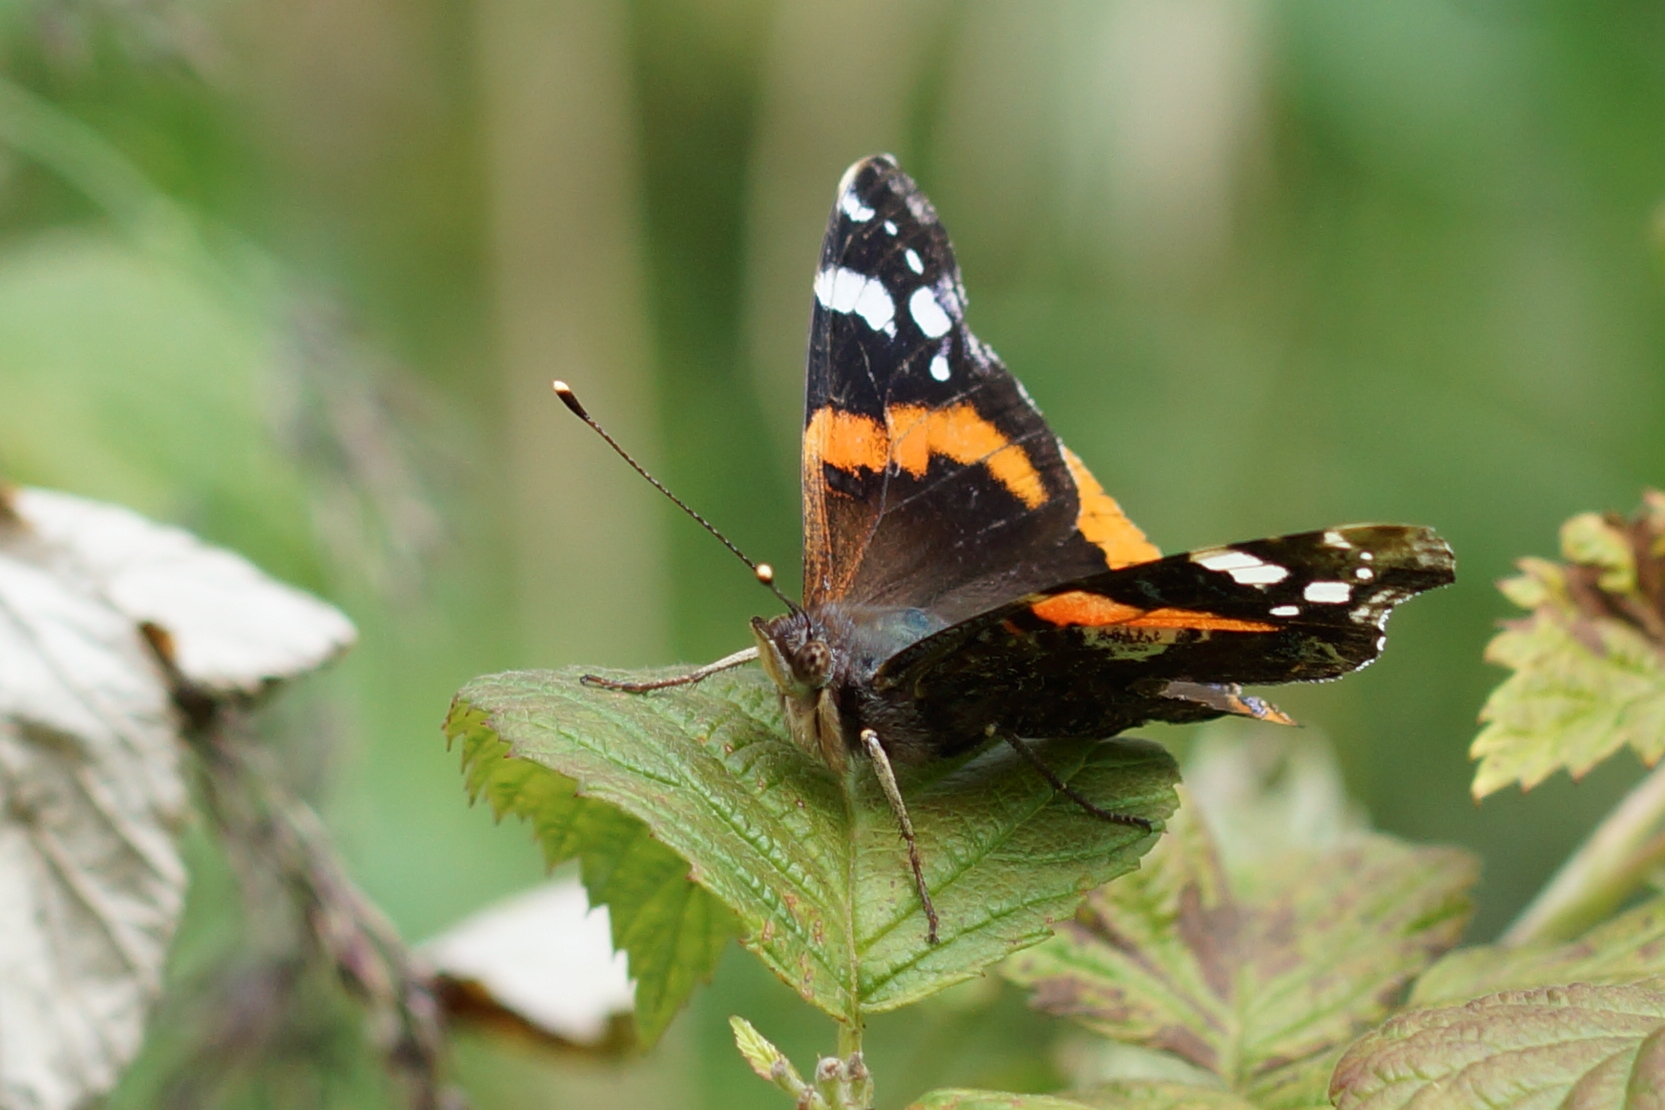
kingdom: Animalia
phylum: Arthropoda
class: Insecta
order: Lepidoptera
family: Nymphalidae
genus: Vanessa
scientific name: Vanessa atalanta
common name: Admiral
